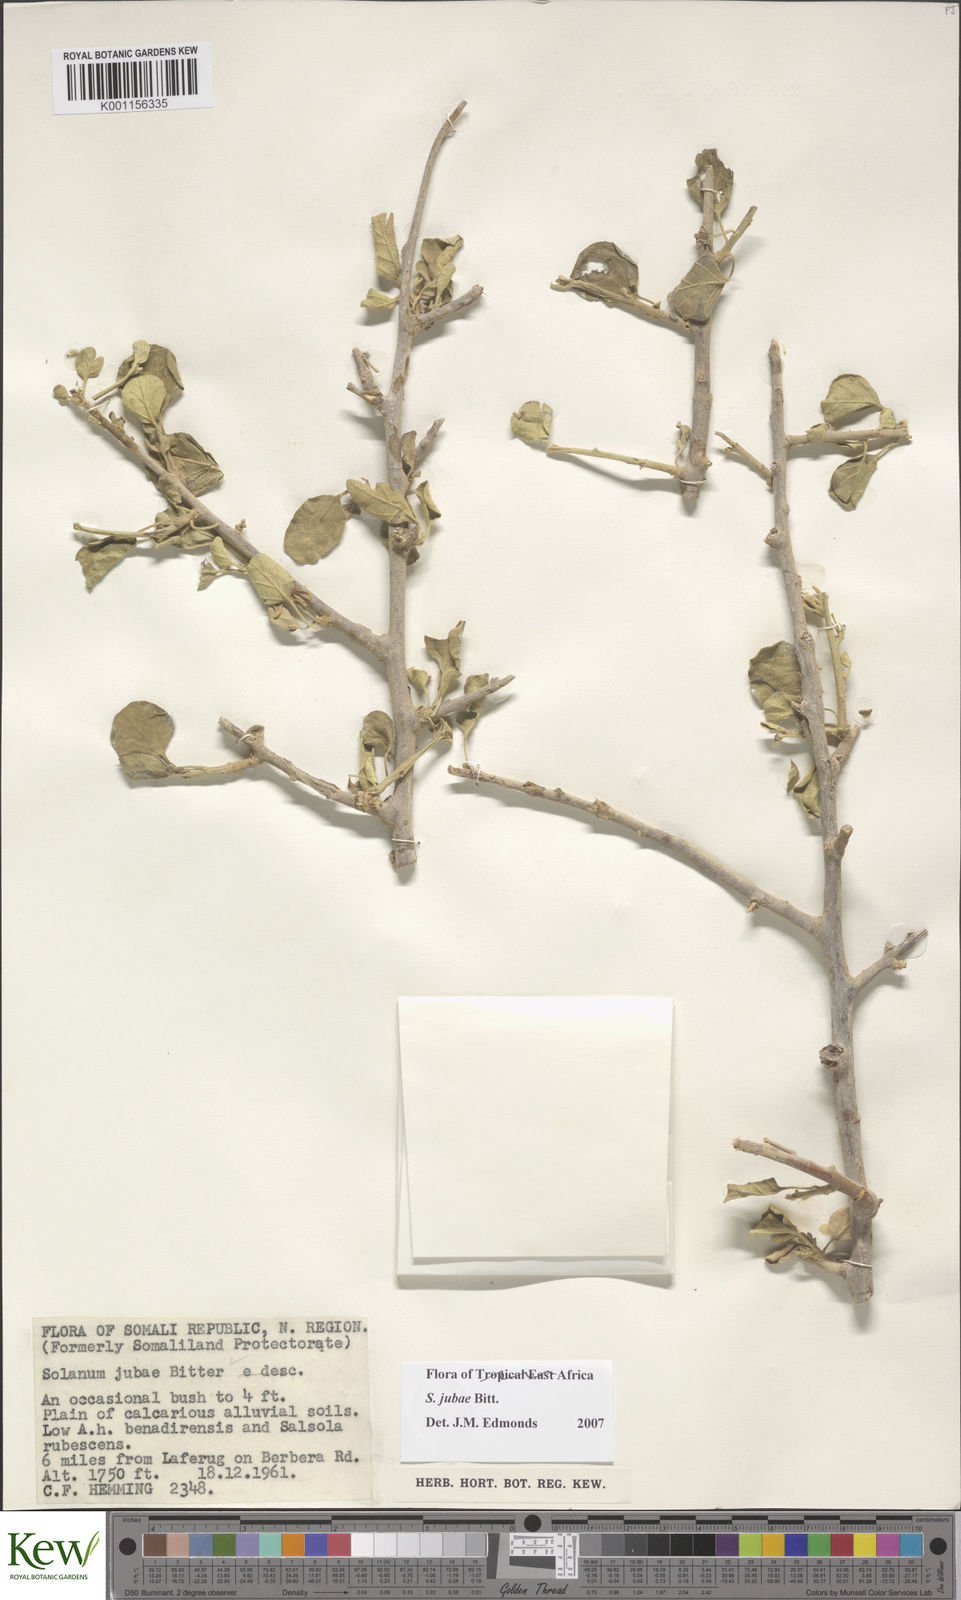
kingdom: Plantae
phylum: Tracheophyta
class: Magnoliopsida
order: Solanales
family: Solanaceae
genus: Solanum
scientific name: Solanum jubae
